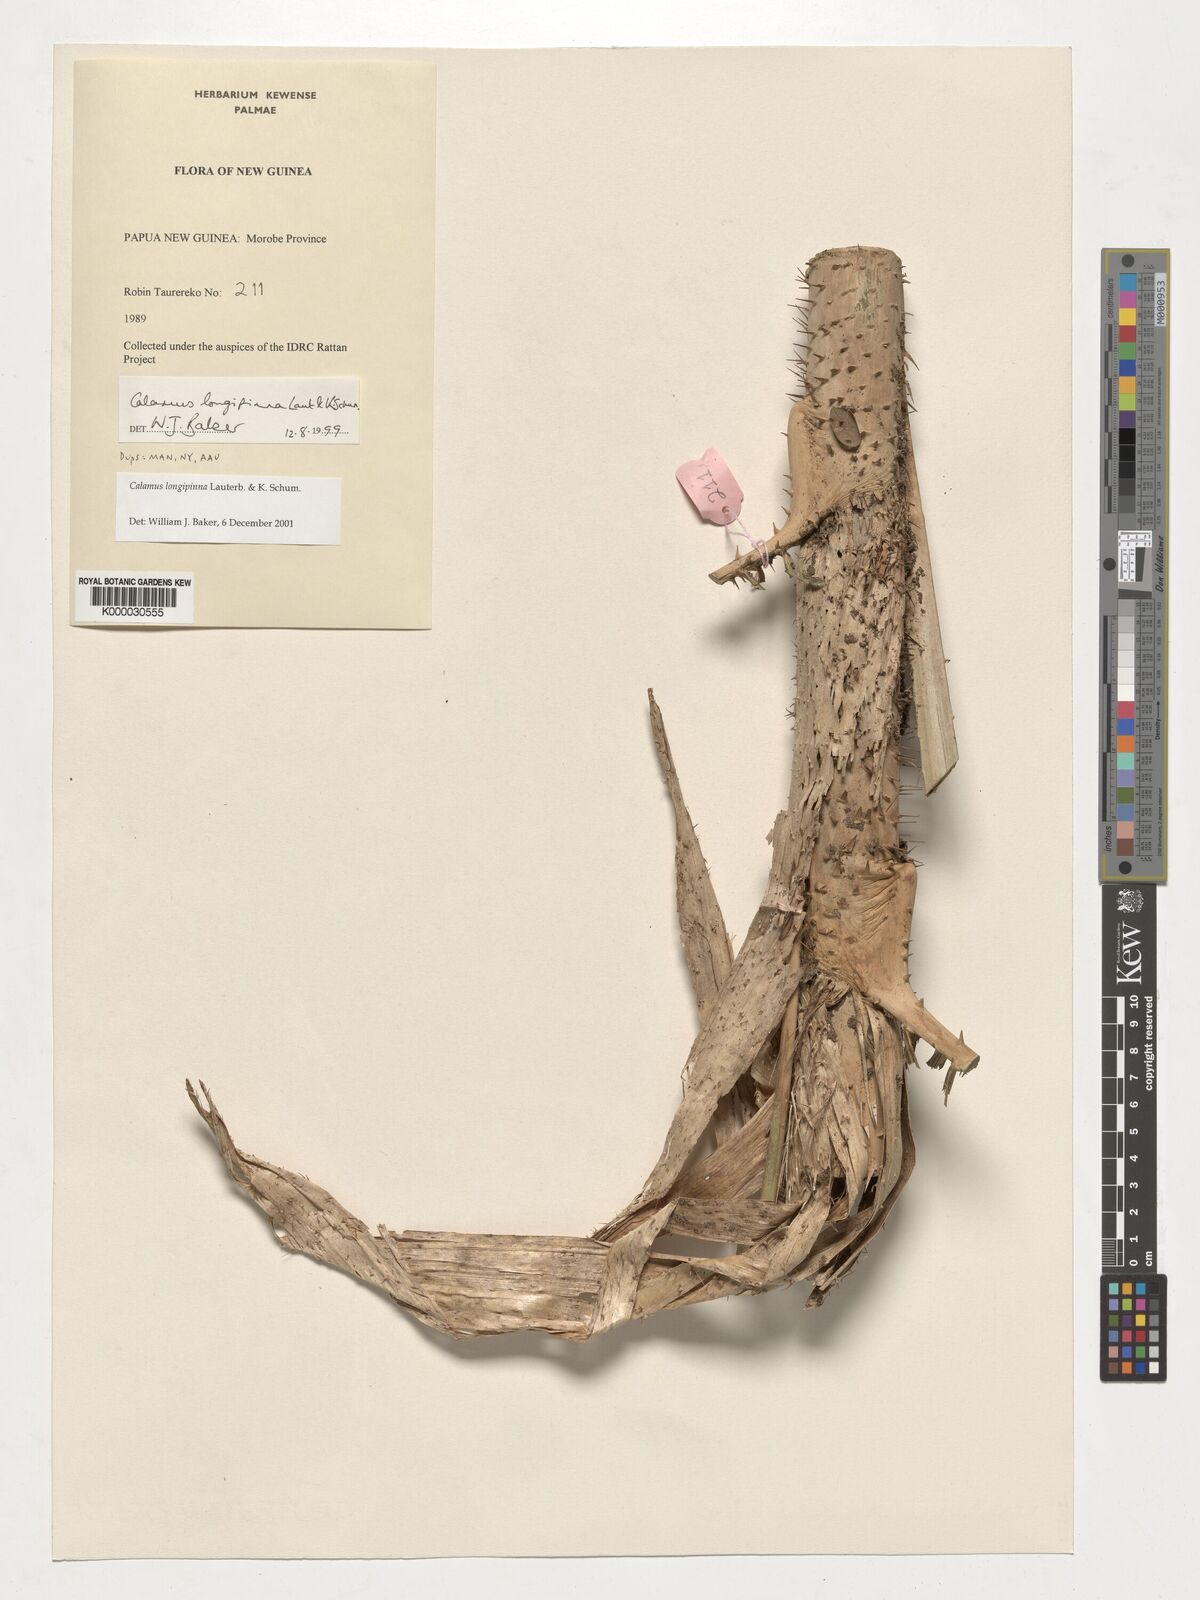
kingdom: Plantae
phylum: Tracheophyta
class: Liliopsida
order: Arecales
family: Arecaceae
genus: Calamus
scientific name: Calamus longipinna
